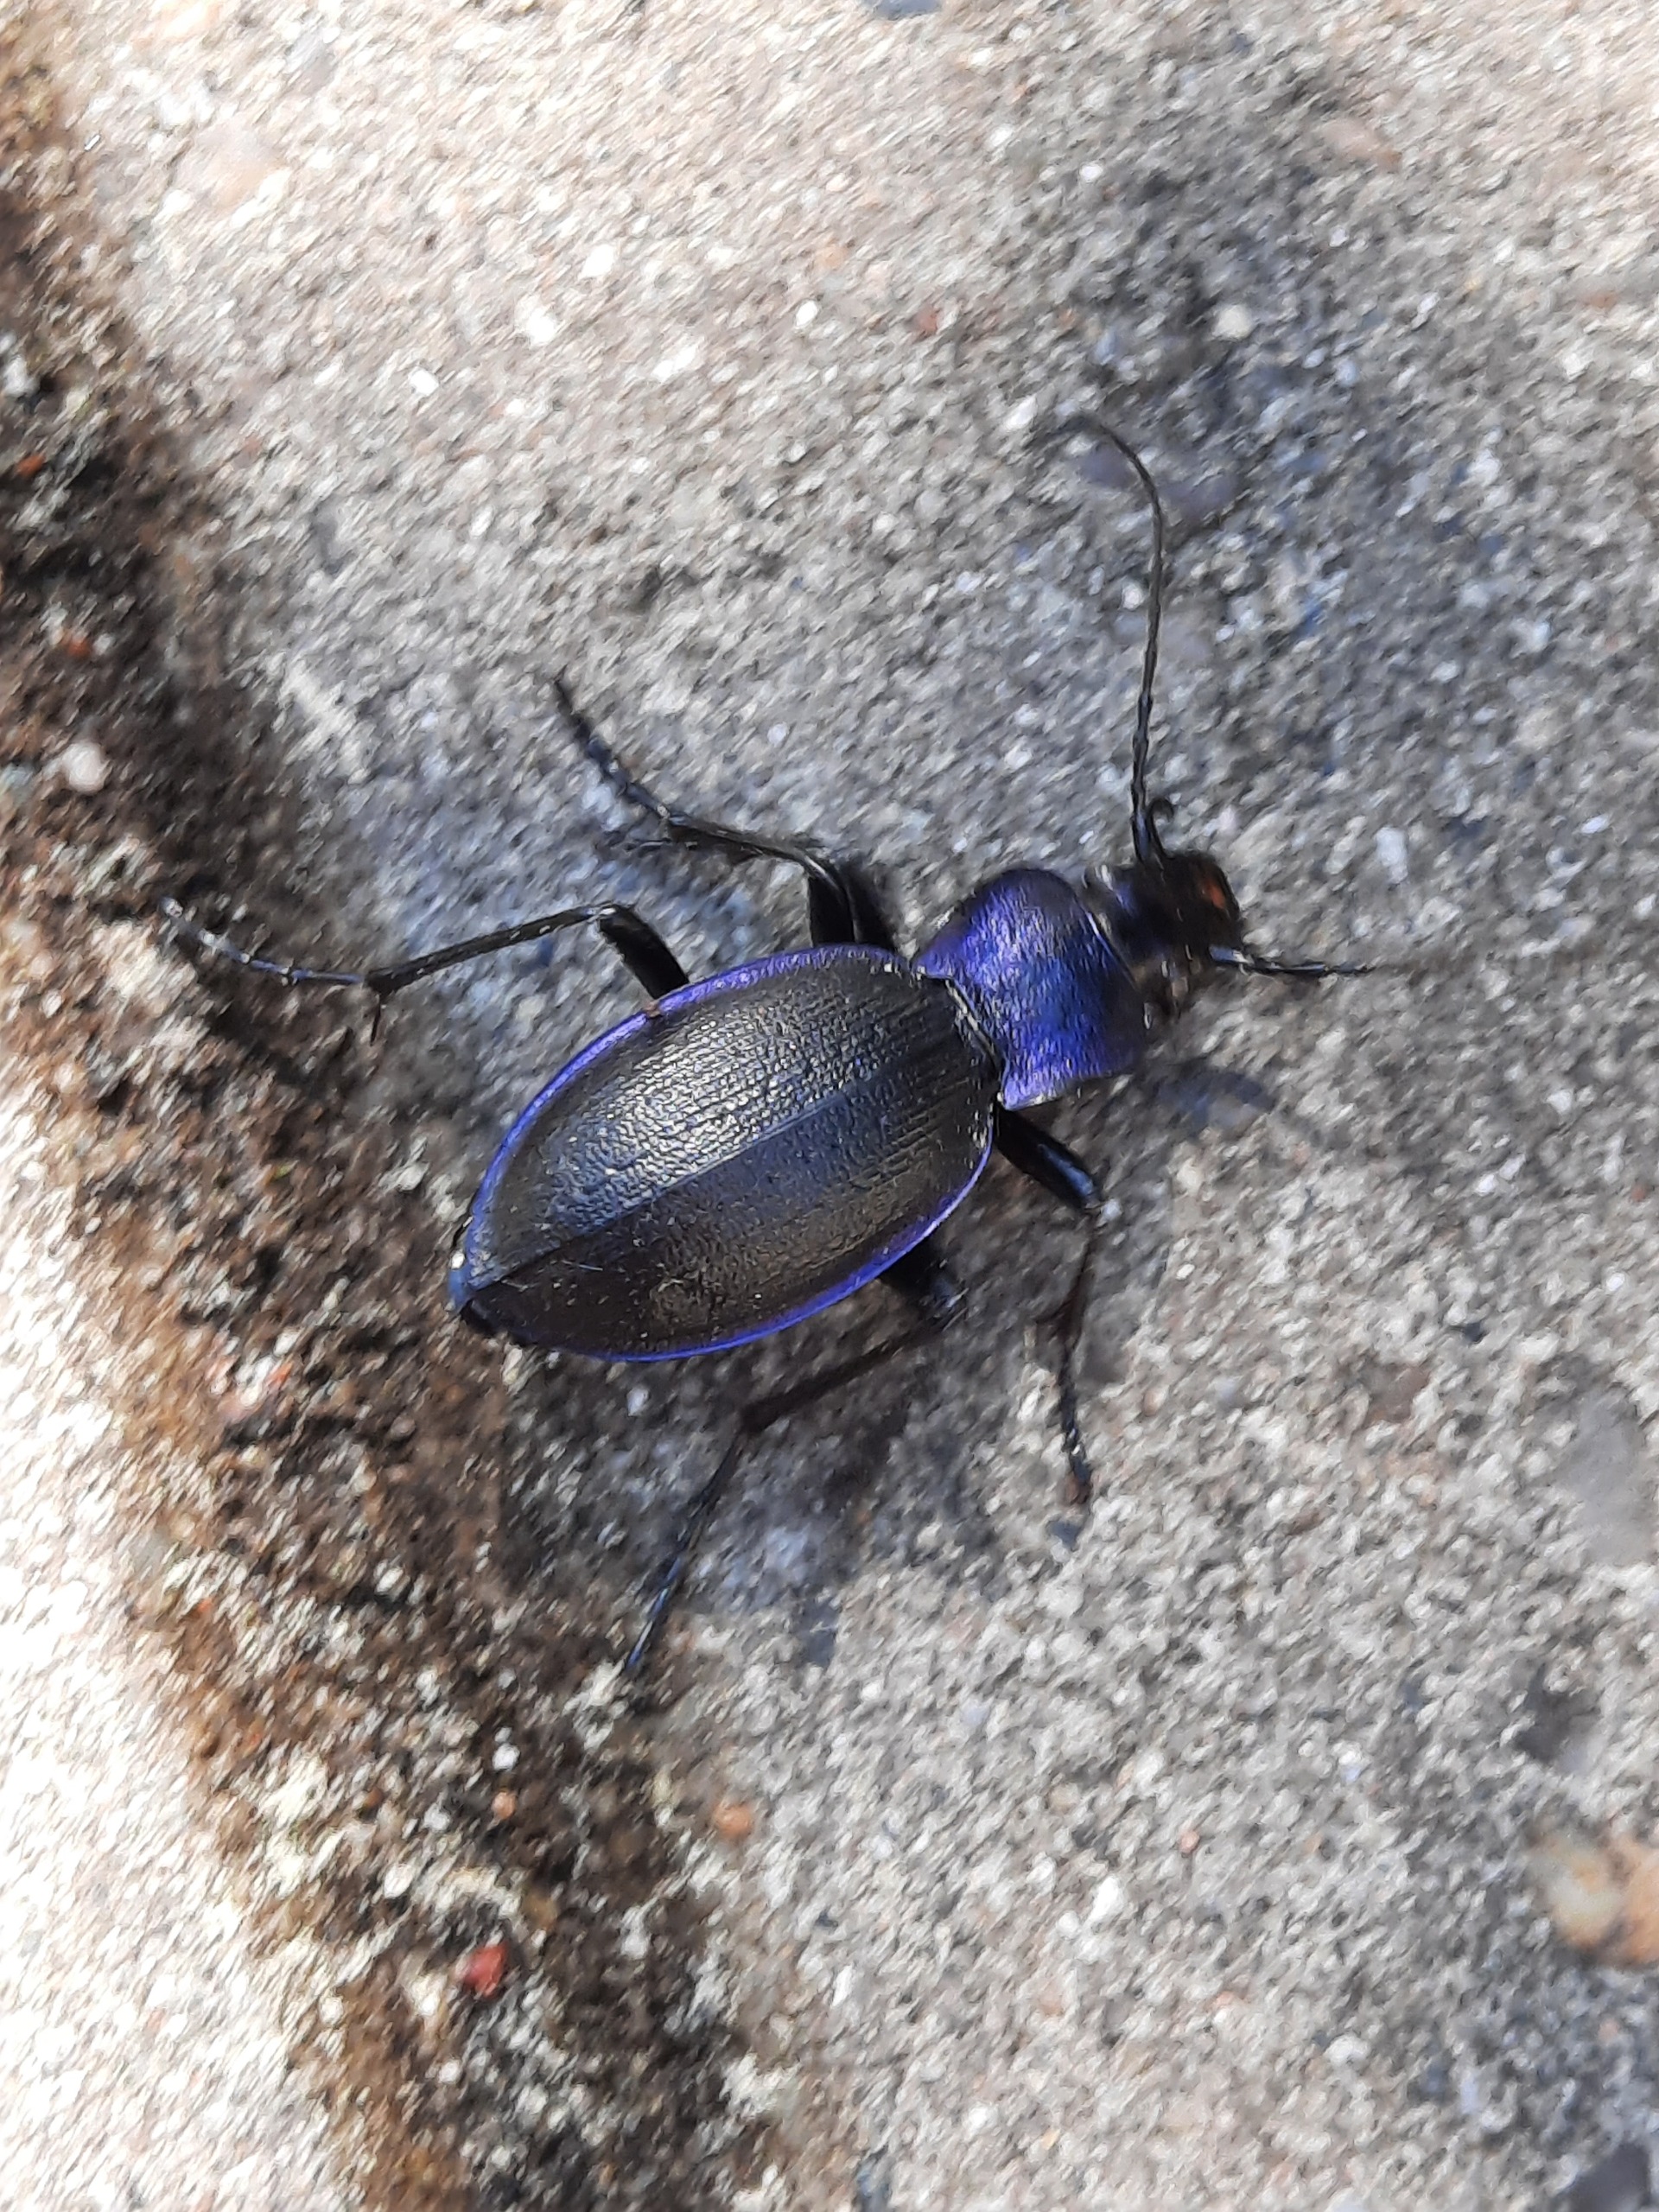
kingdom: Animalia
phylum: Arthropoda
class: Insecta
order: Coleoptera
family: Carabidae
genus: Carabus
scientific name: Carabus problematicus
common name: Jysk løber
